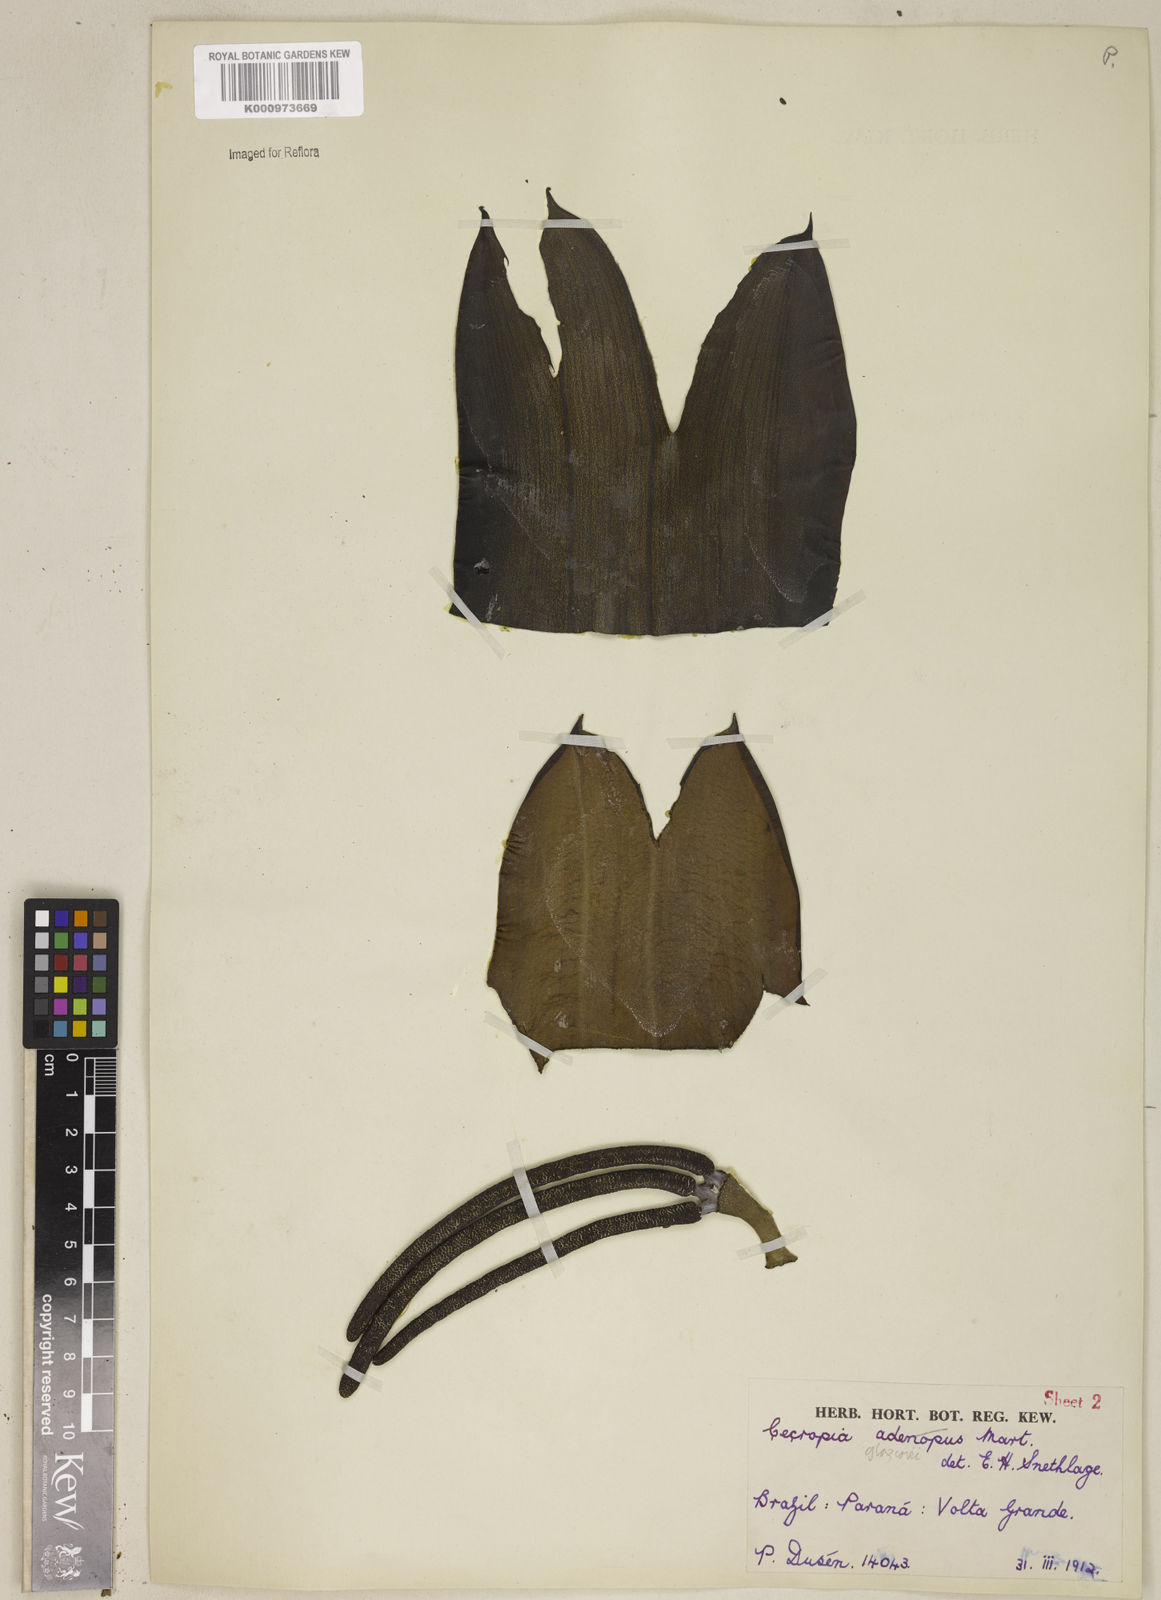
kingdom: Plantae
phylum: Tracheophyta
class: Magnoliopsida
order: Rosales
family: Urticaceae
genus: Cecropia
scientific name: Cecropia glaziovii
